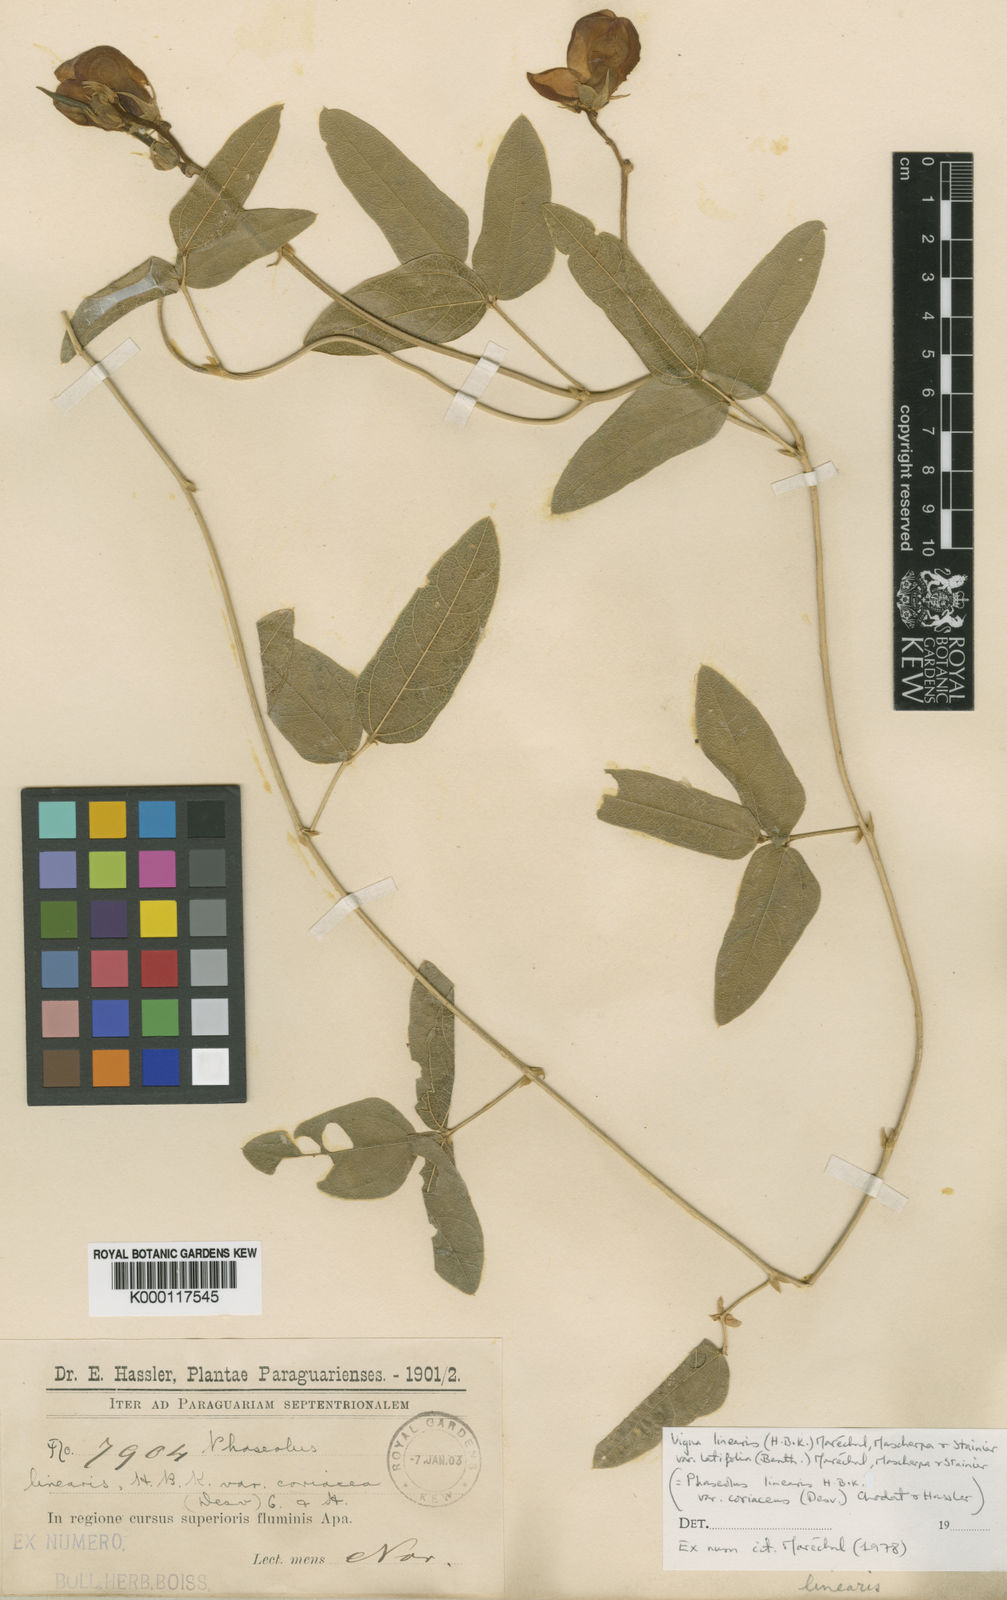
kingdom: Plantae
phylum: Tracheophyta
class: Magnoliopsida
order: Fabales
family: Fabaceae
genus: Vigna
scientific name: Vigna
